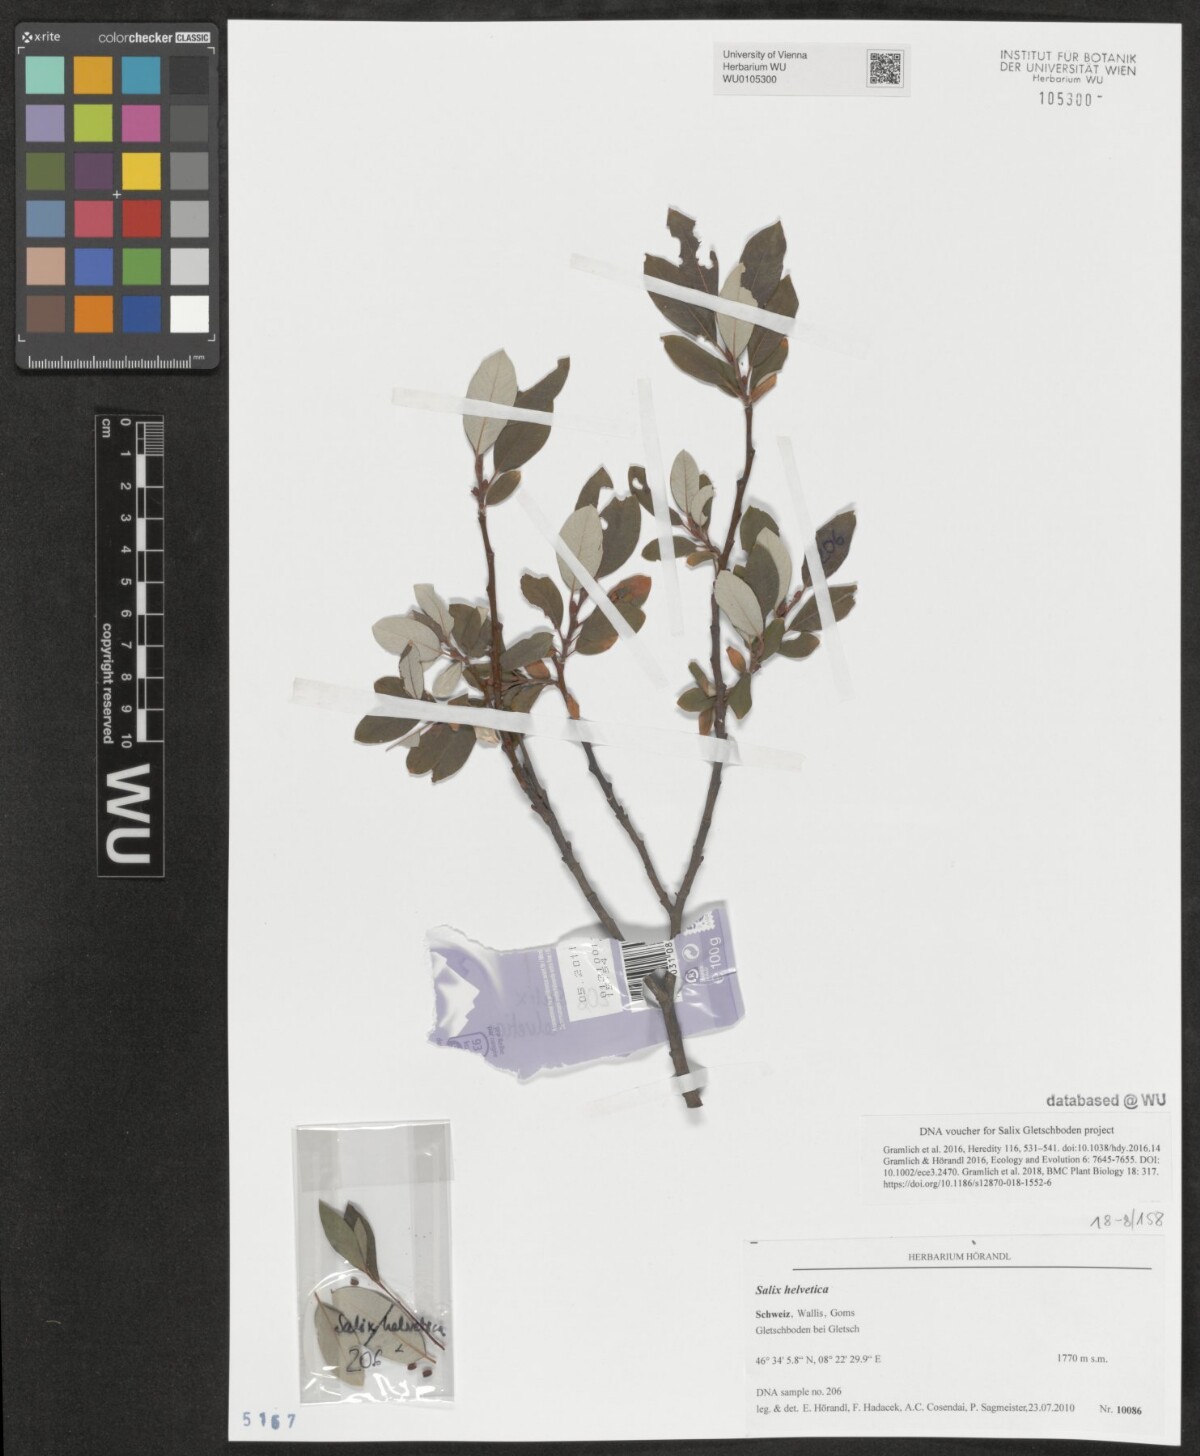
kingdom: Plantae
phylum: Tracheophyta
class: Magnoliopsida
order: Malpighiales
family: Salicaceae
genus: Salix
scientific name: Salix helvetica
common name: Swiss willow
